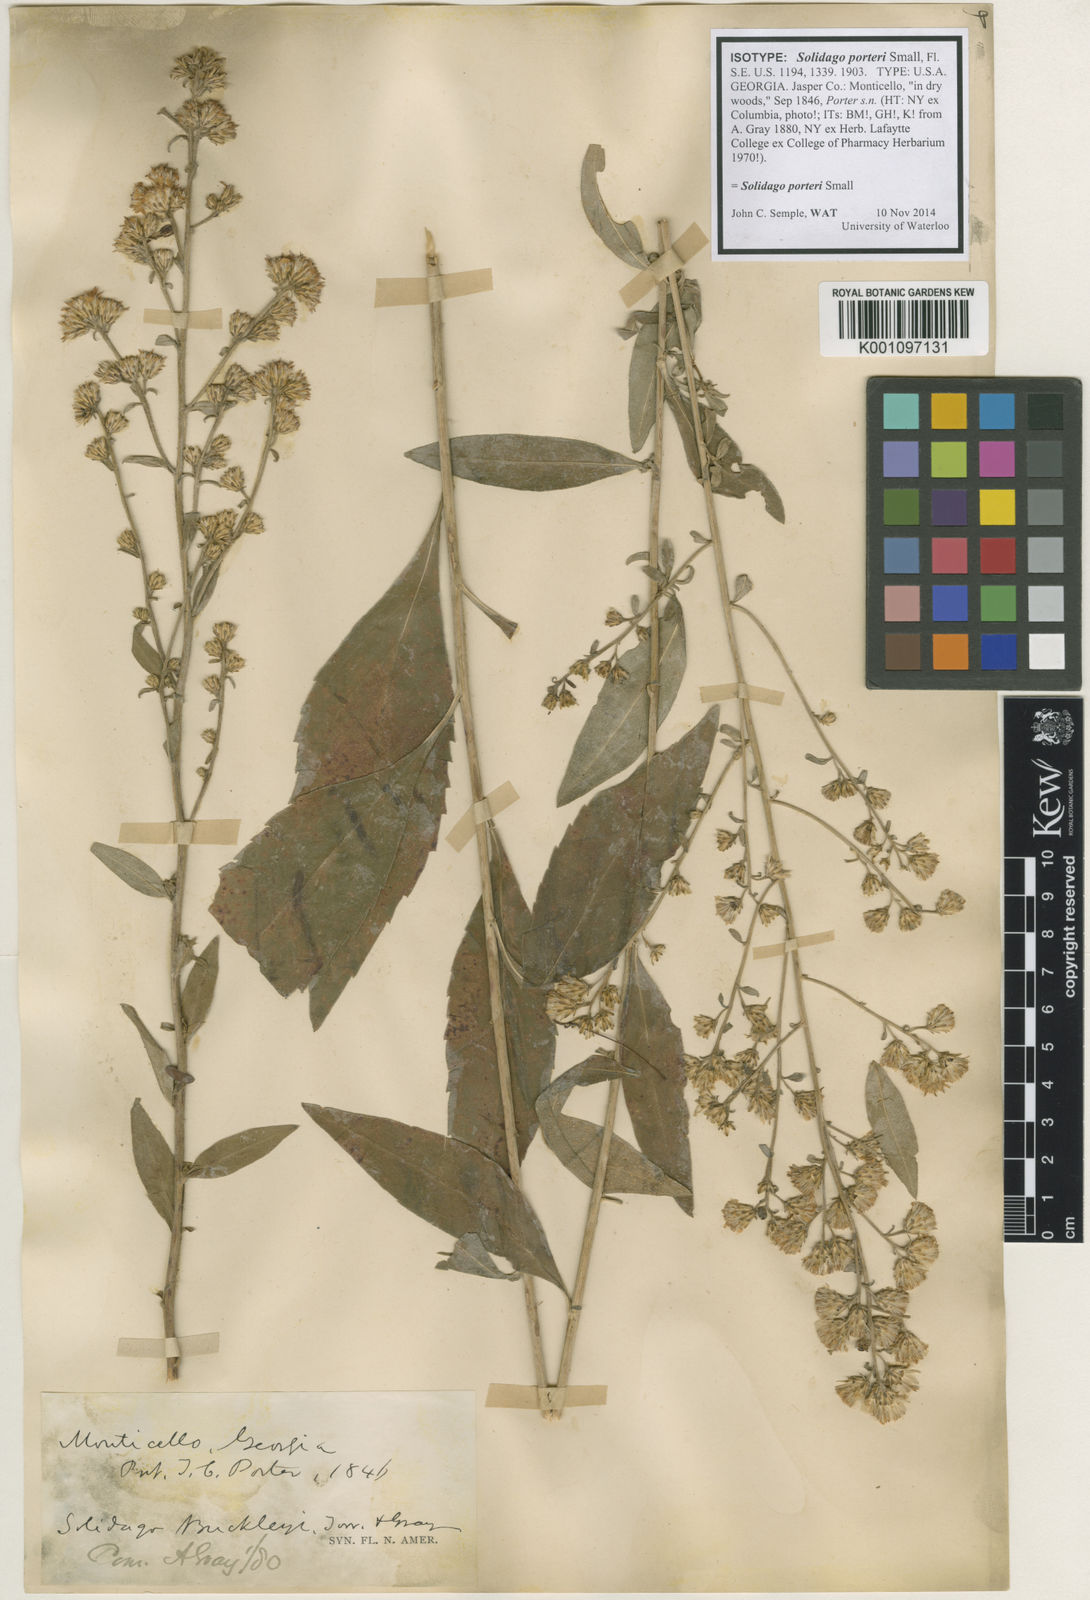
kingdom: Plantae
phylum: Tracheophyta
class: Magnoliopsida
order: Asterales
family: Asteraceae
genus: Solidago
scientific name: Solidago porteri
